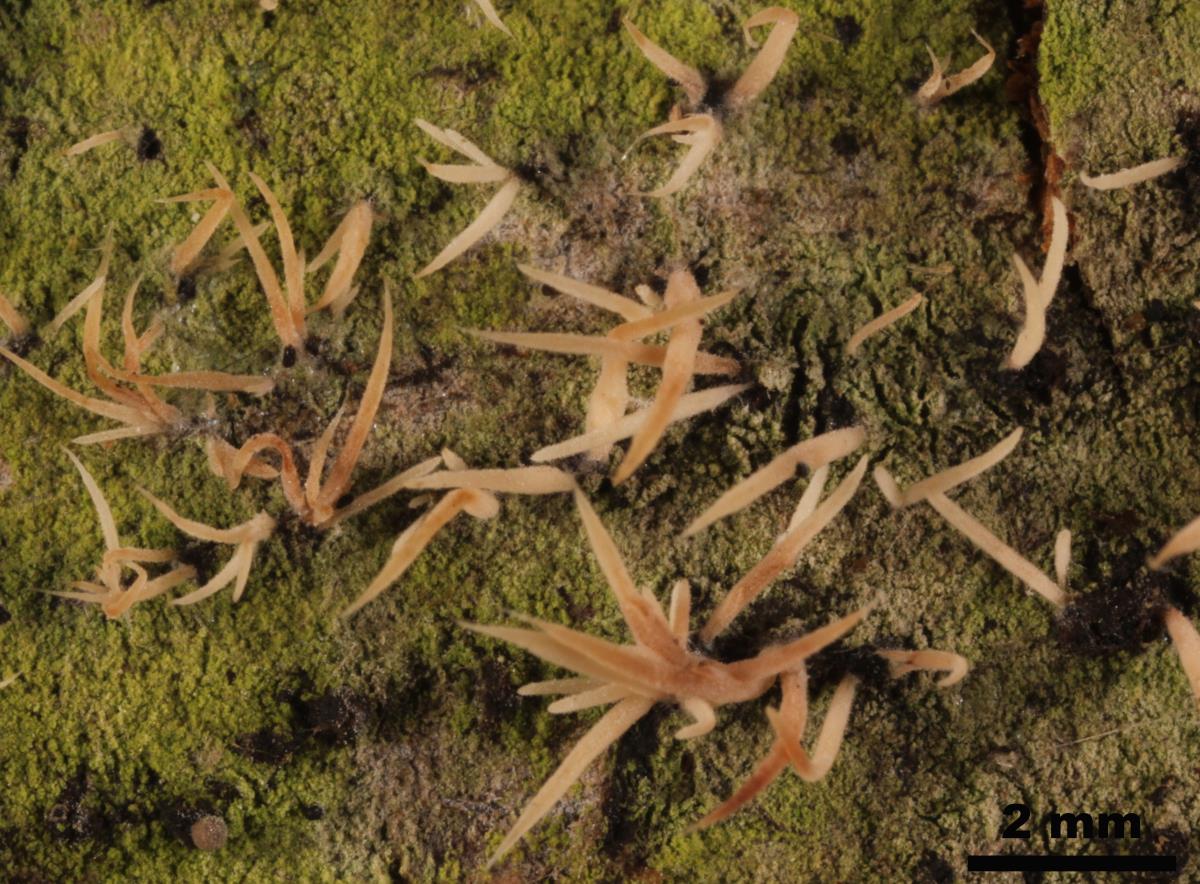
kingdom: Fungi
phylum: Basidiomycota
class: Agaricomycetes
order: Agaricales
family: Pterulaceae
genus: Pterulicium
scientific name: Pterulicium gracile
